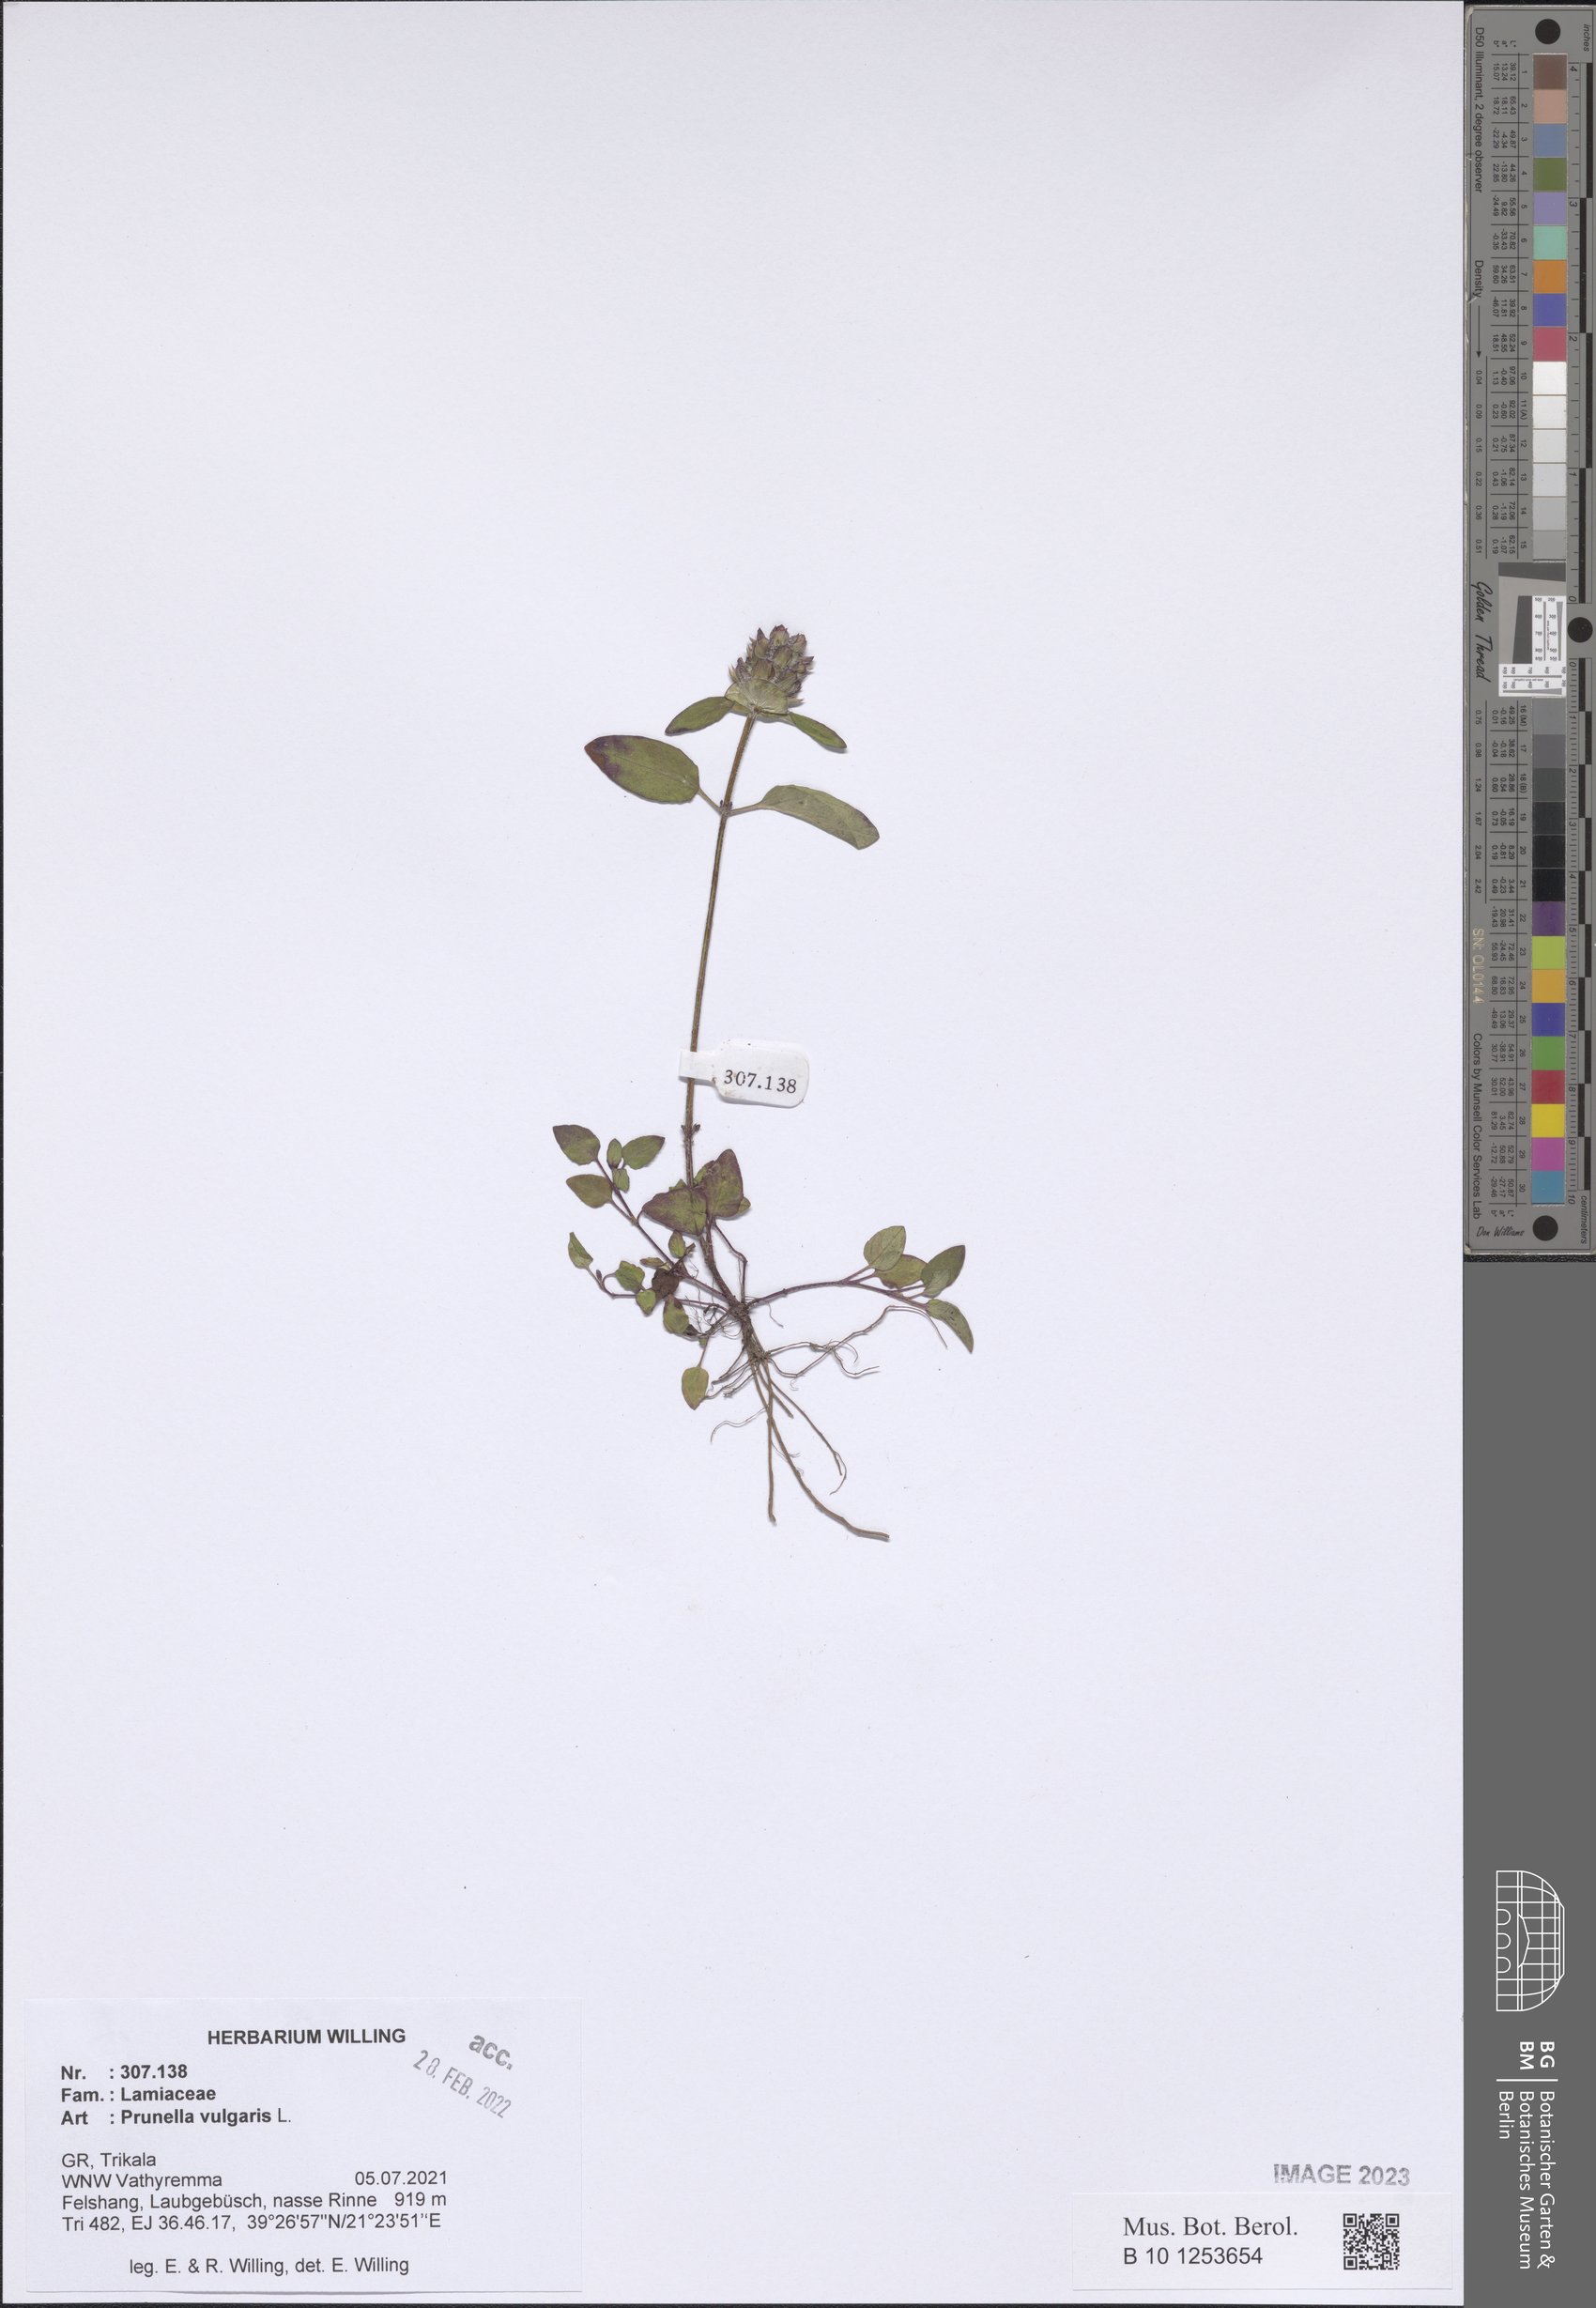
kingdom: Plantae
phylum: Tracheophyta
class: Magnoliopsida
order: Lamiales
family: Lamiaceae
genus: Prunella
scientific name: Prunella vulgaris
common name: Heal-all
